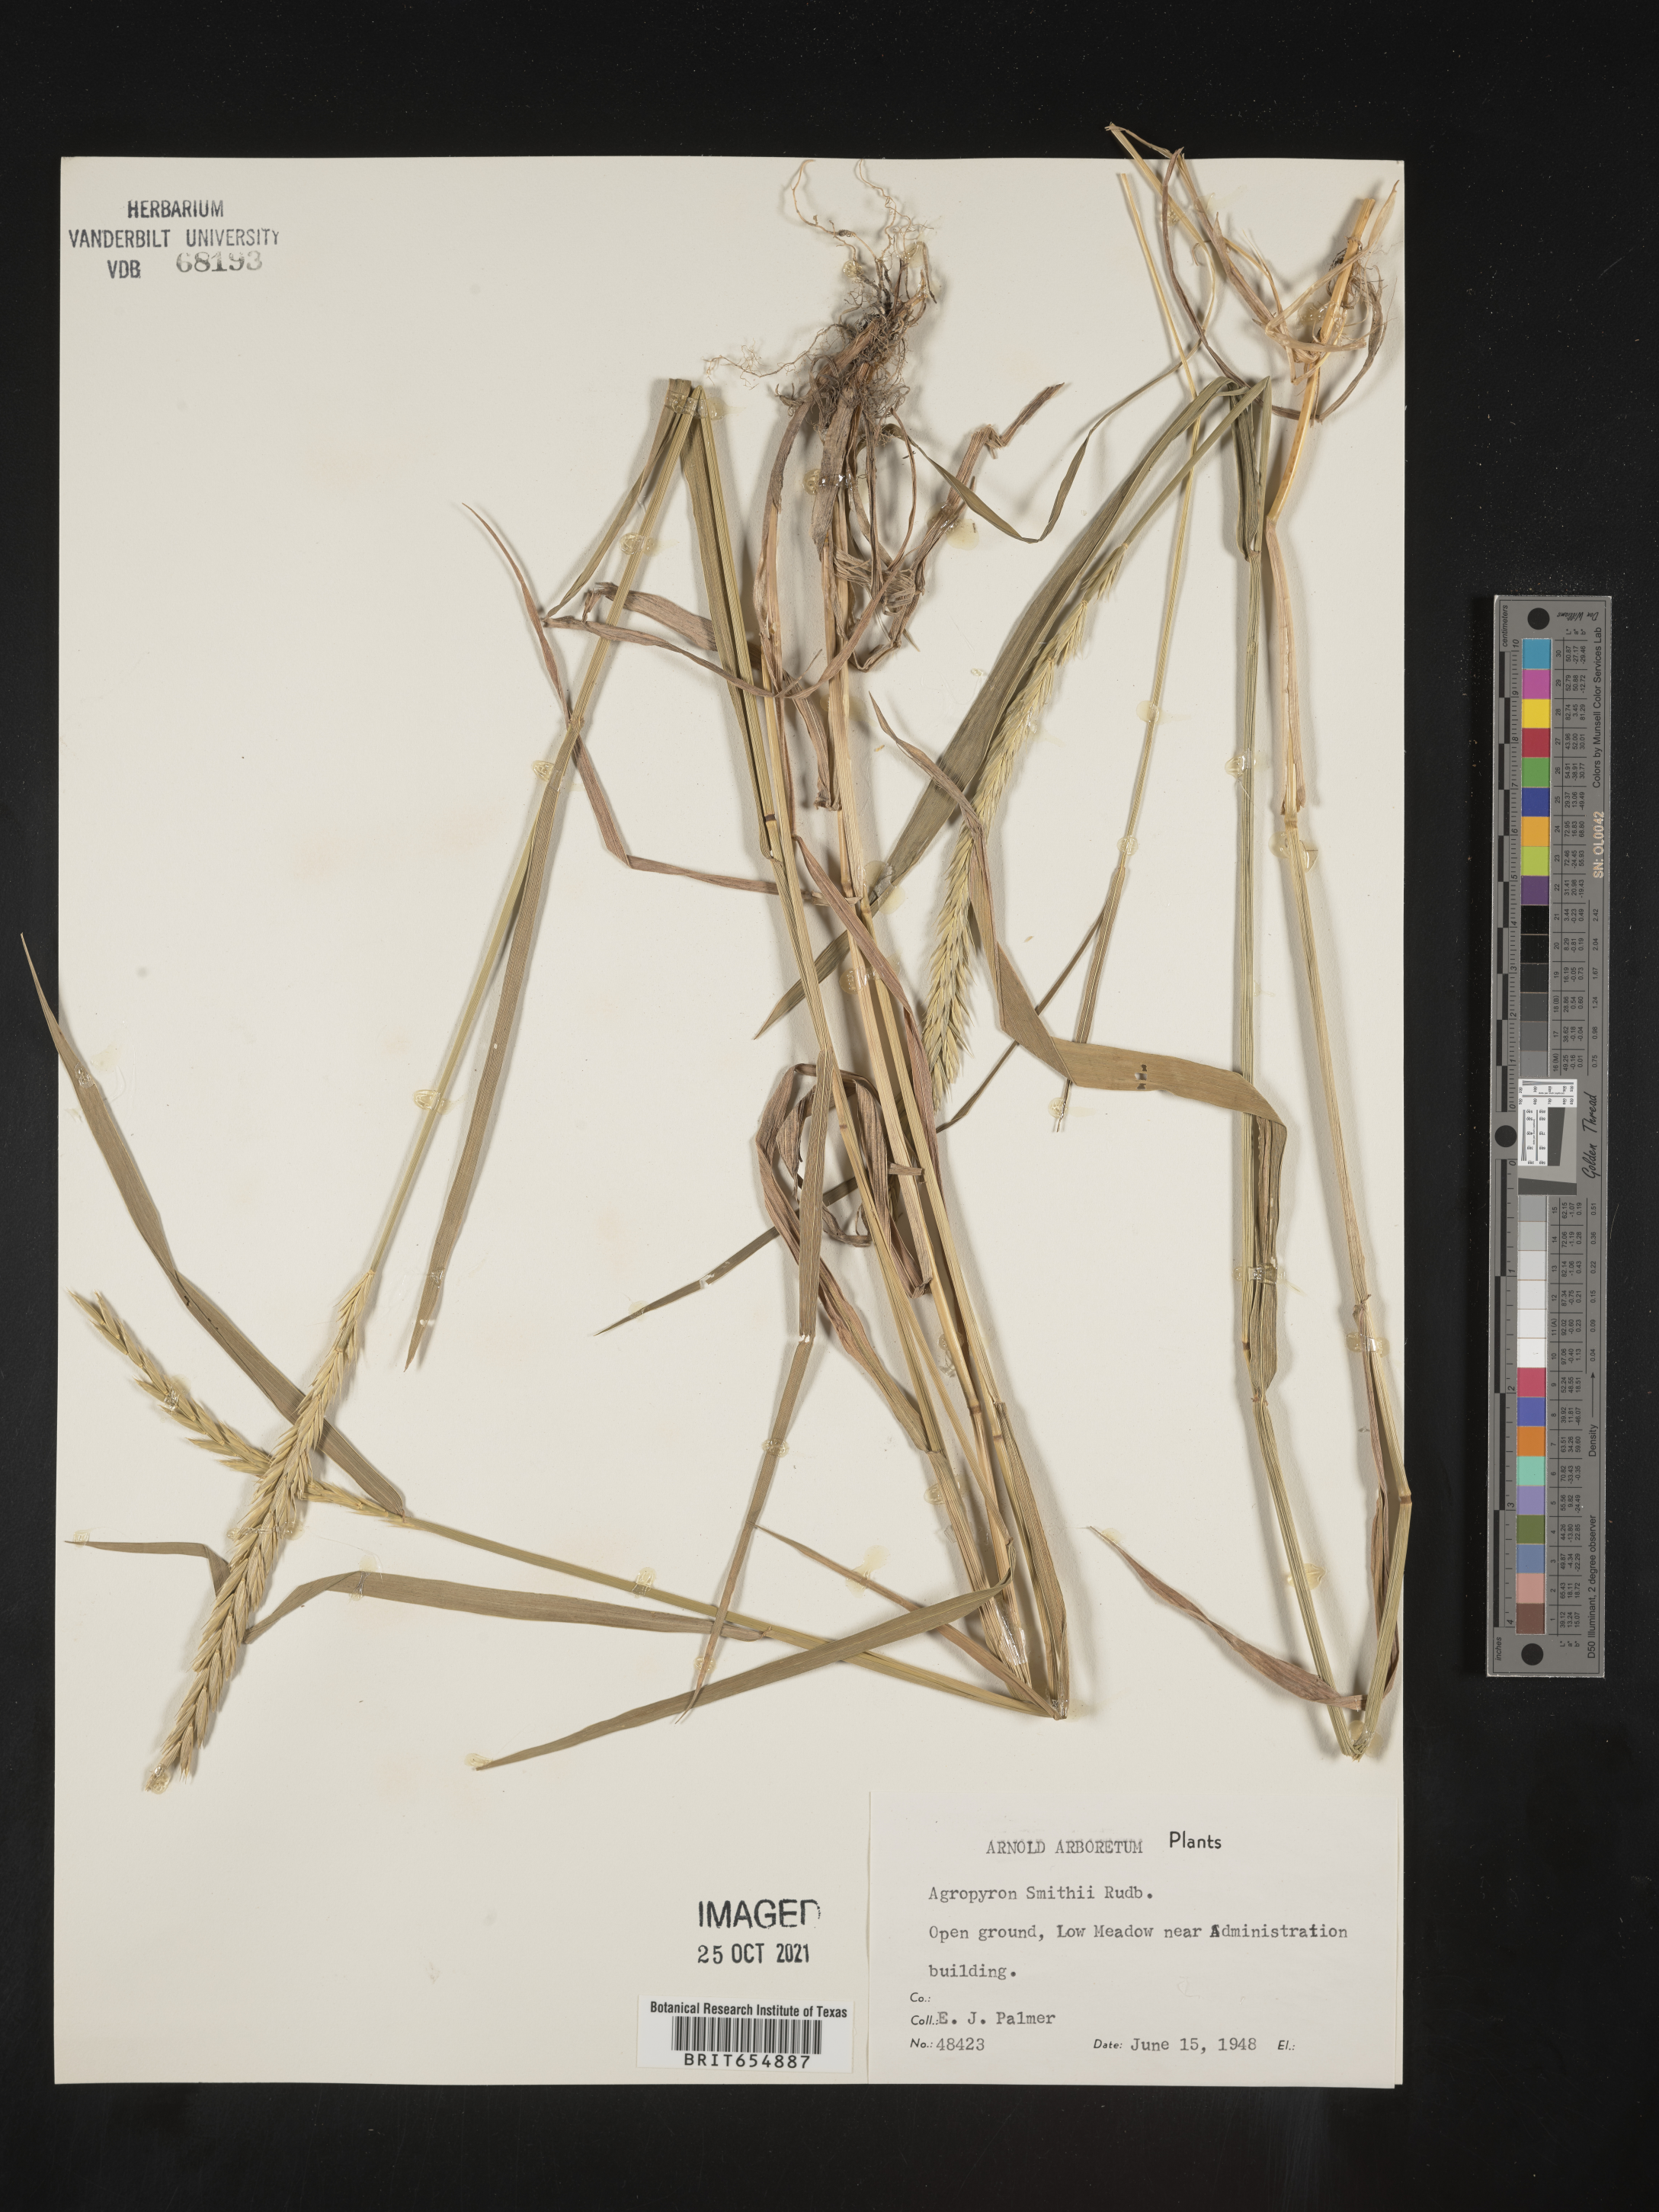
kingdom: Plantae
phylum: Tracheophyta
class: Liliopsida
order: Poales
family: Poaceae
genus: Agropyron
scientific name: Agropyron
